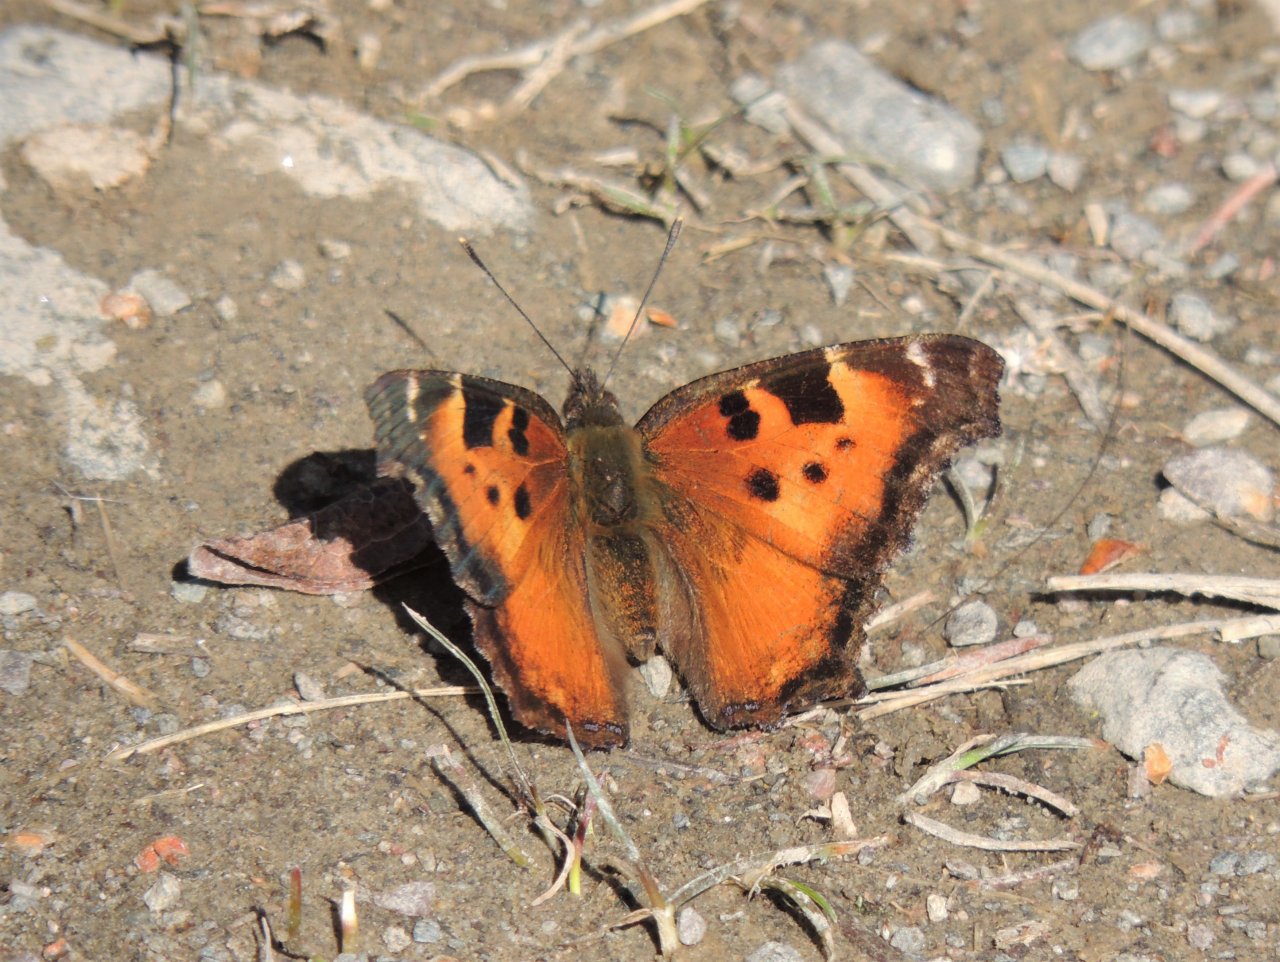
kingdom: Animalia
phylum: Arthropoda
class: Insecta
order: Lepidoptera
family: Nymphalidae
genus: Nymphalis
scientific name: Nymphalis californica
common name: California Tortoiseshell
